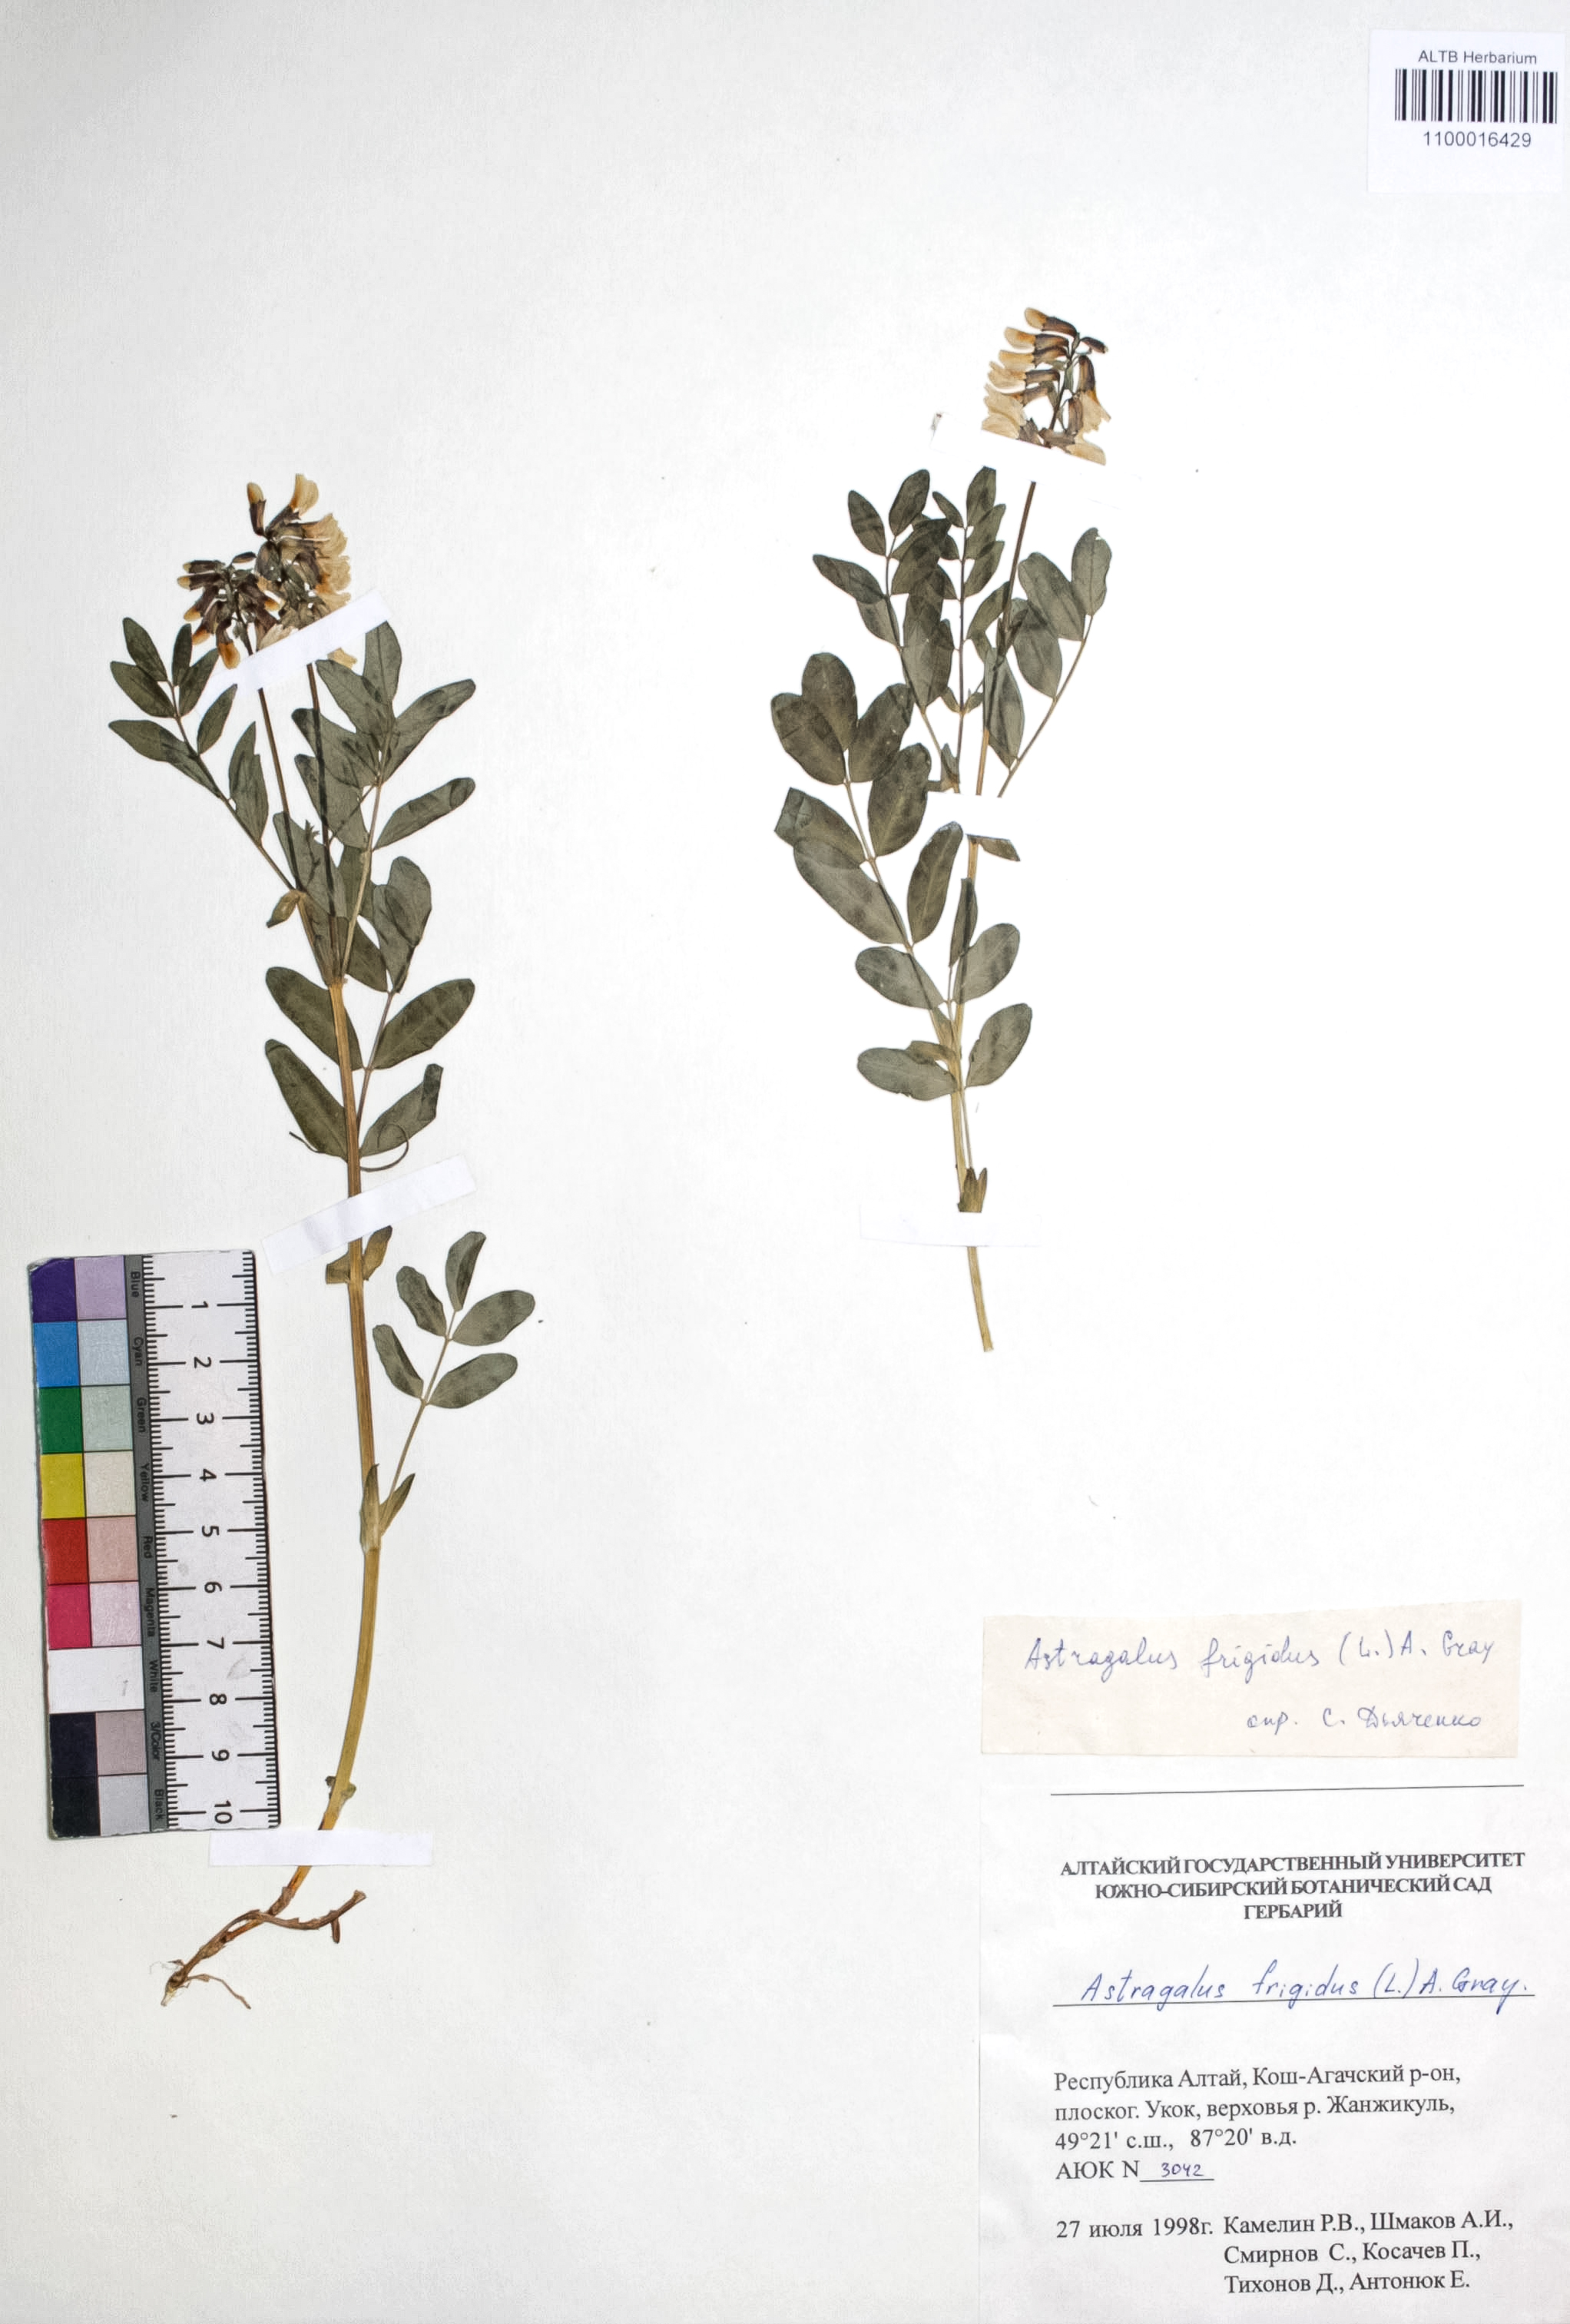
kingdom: Plantae
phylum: Tracheophyta
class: Magnoliopsida
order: Fabales
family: Fabaceae
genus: Astragalus
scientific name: Astragalus frigidus
